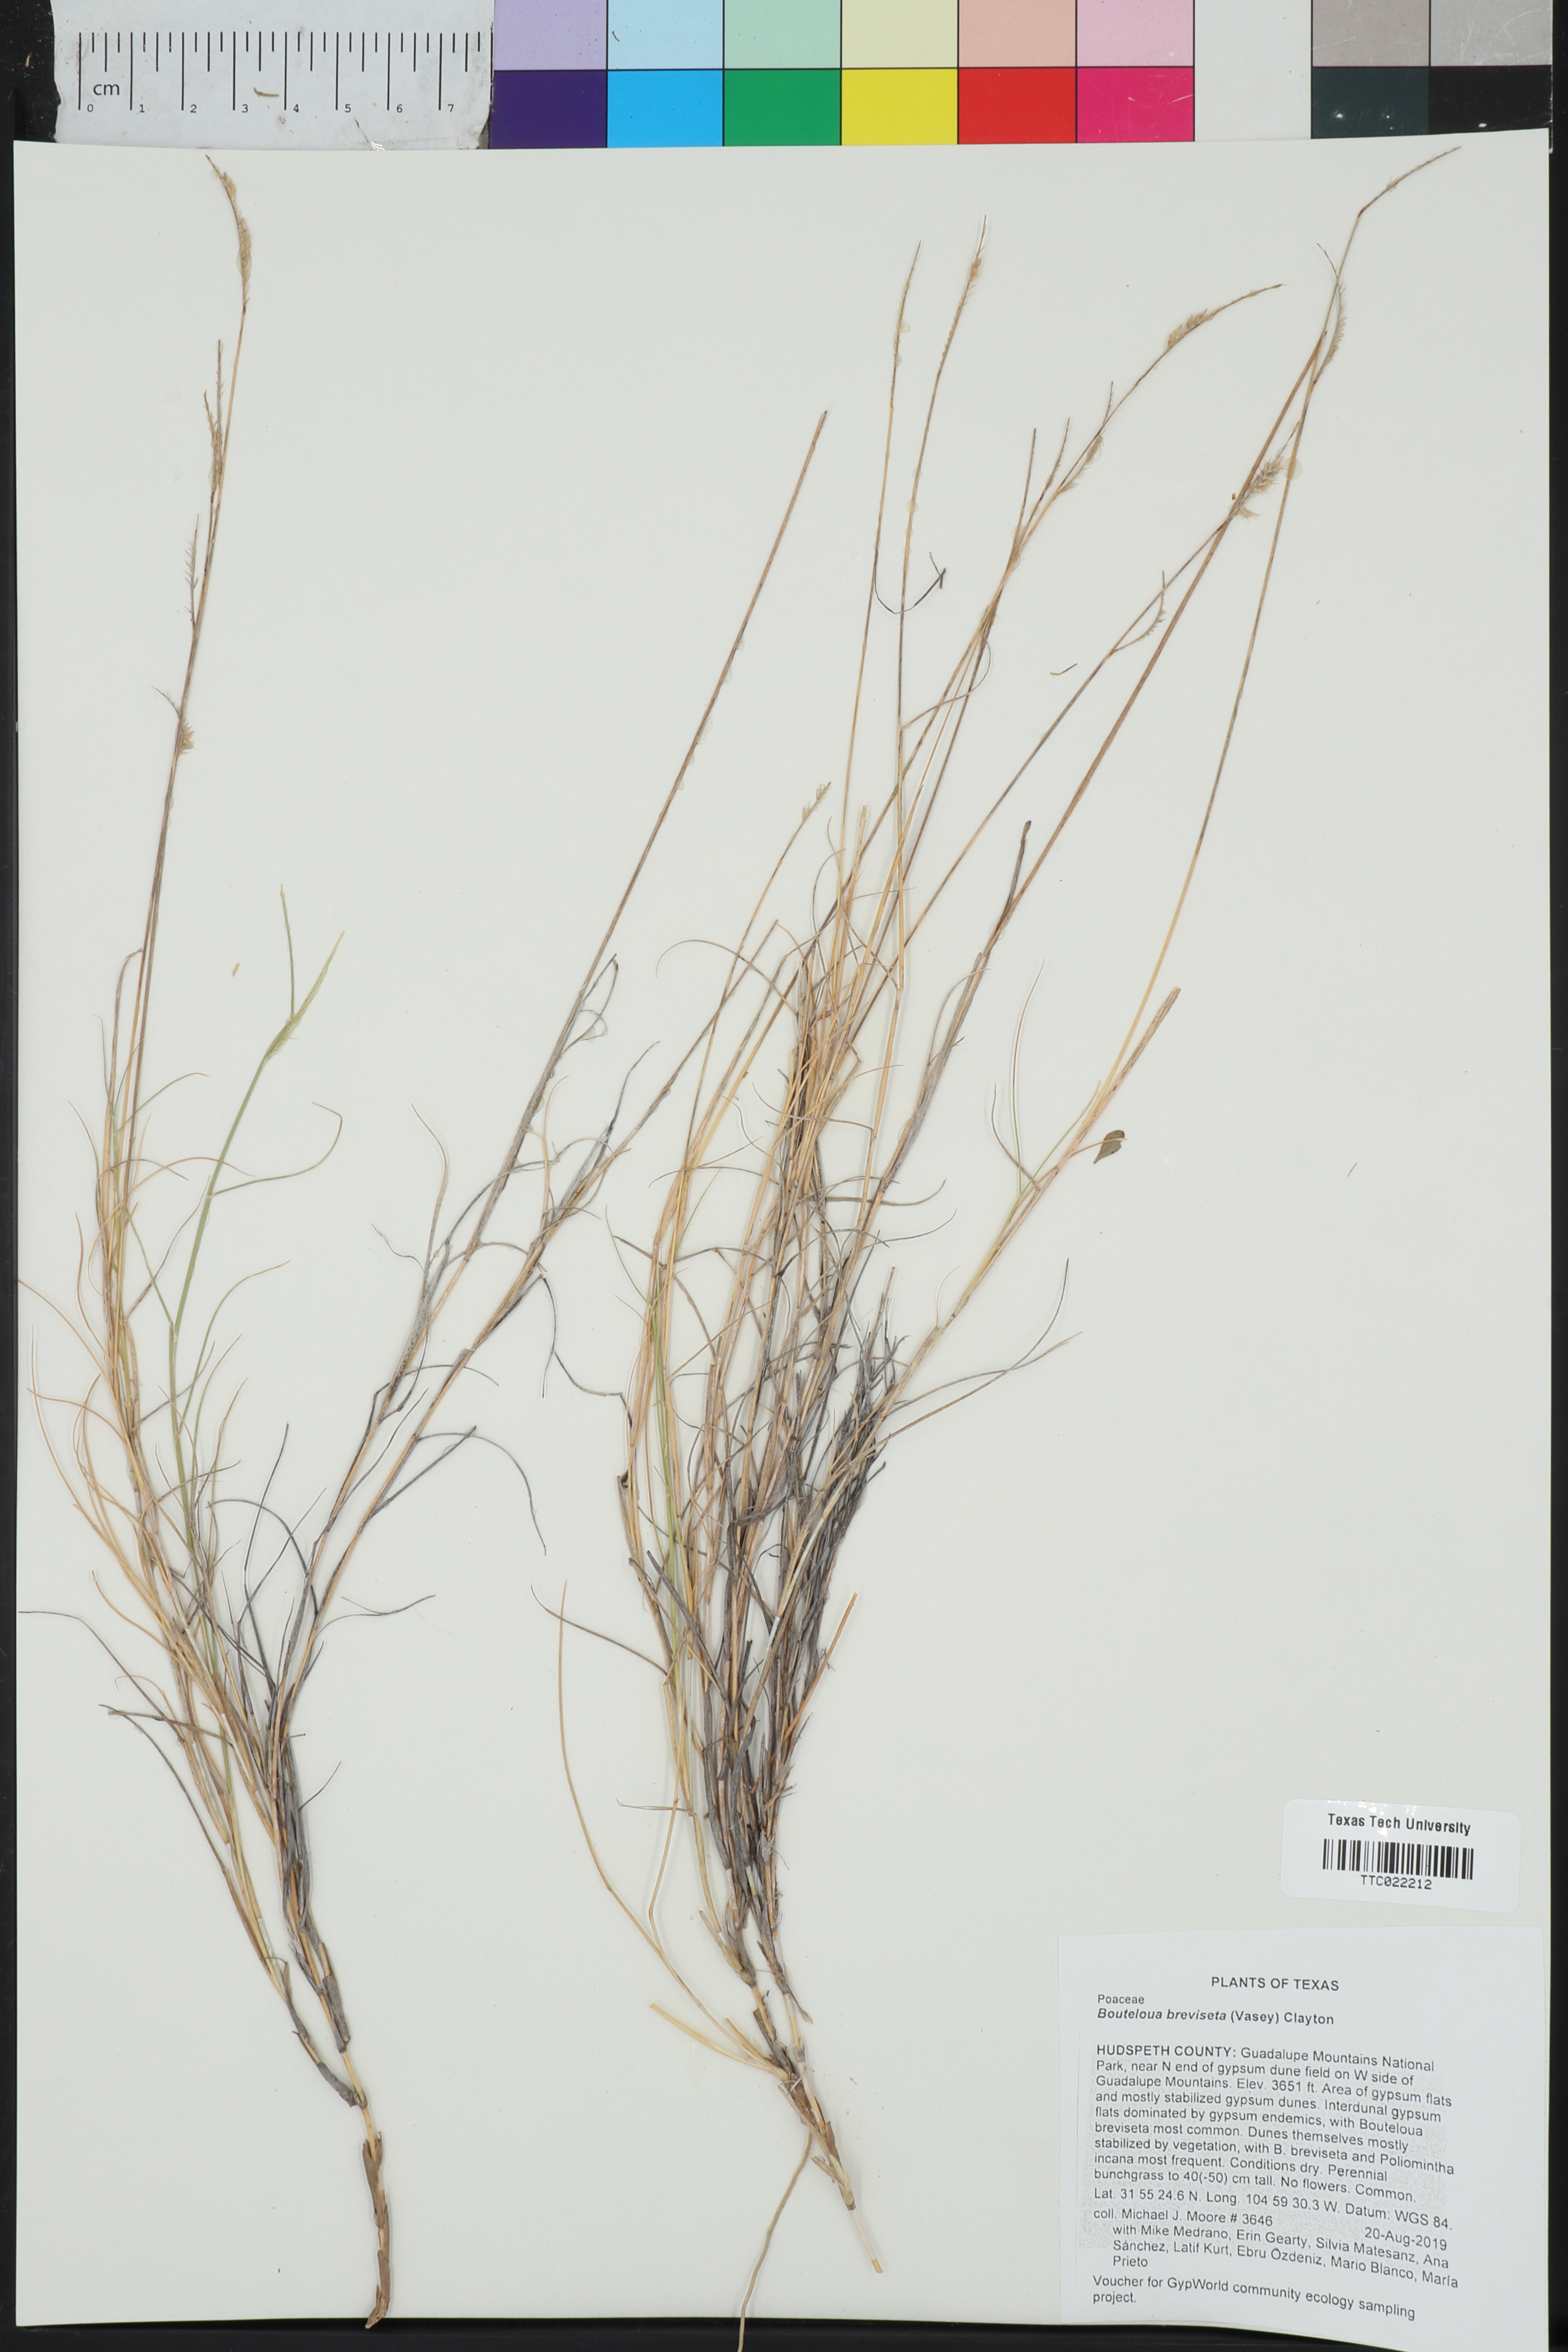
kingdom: Plantae
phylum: Tracheophyta
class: Liliopsida
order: Poales
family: Poaceae
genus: Bouteloua
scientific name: Bouteloua breviseta
